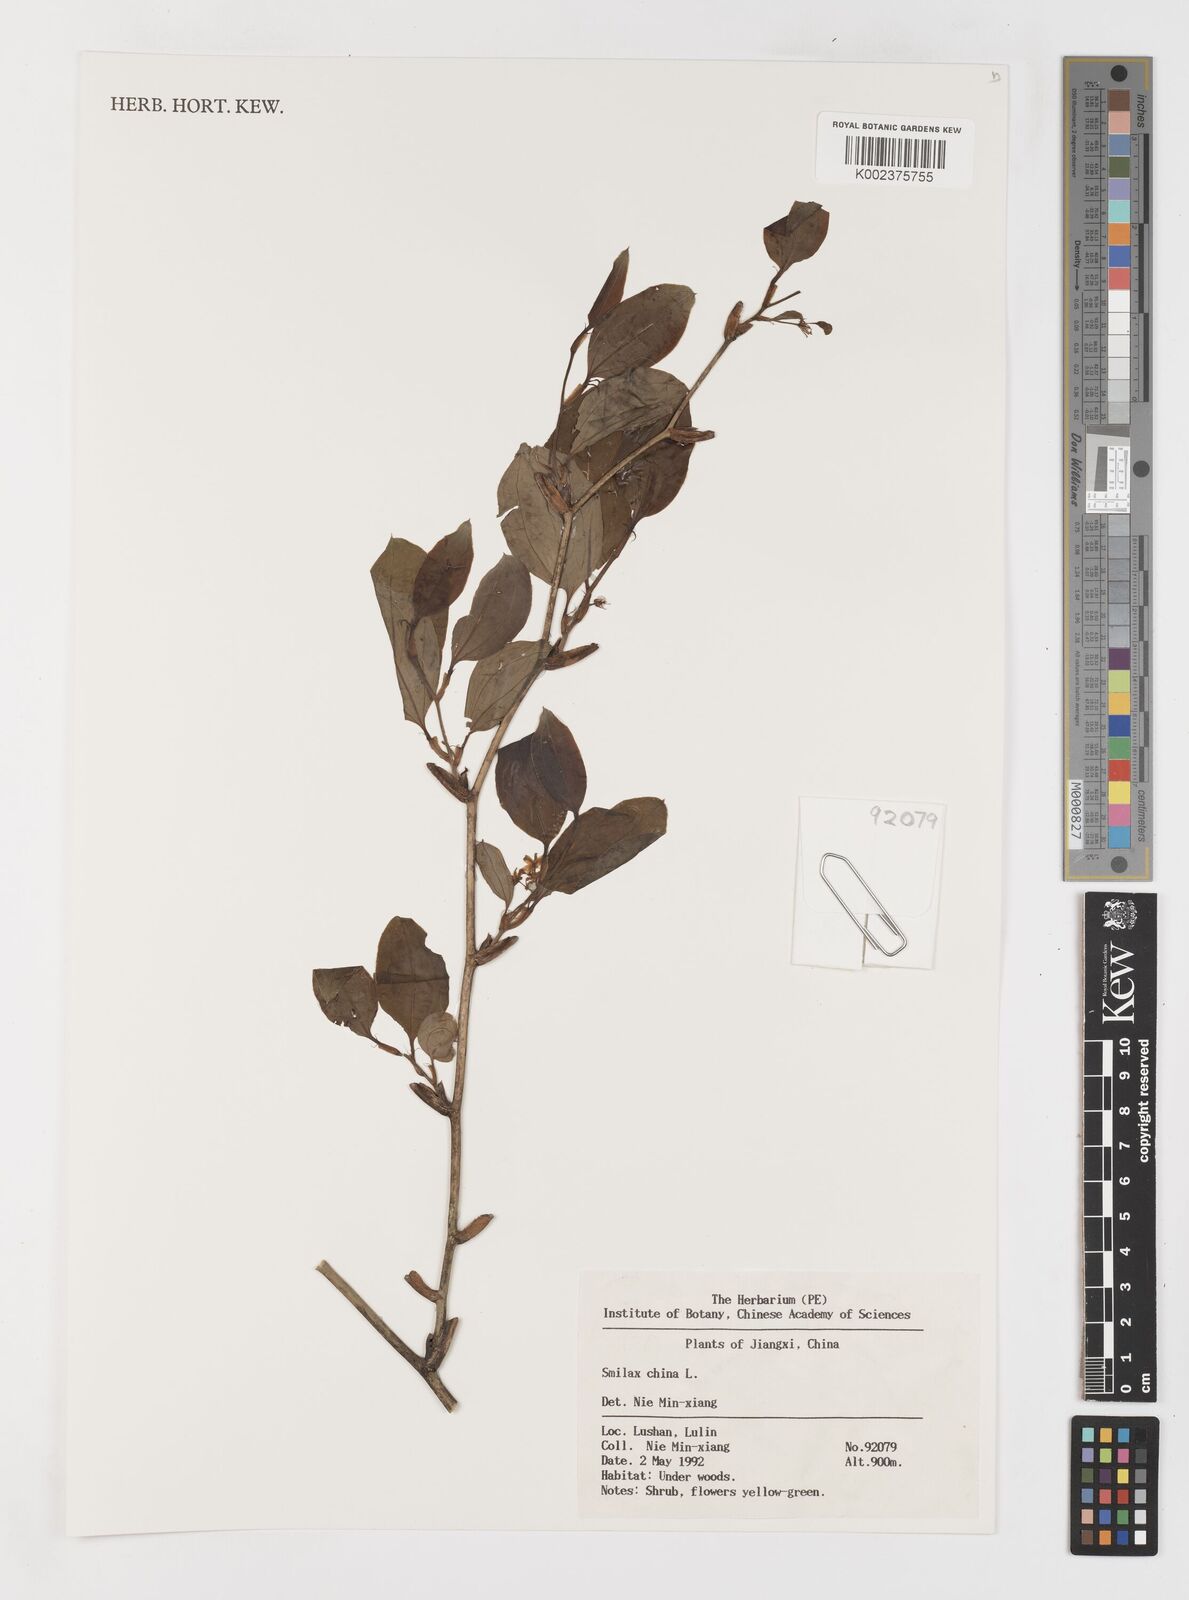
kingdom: Plantae
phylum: Tracheophyta
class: Liliopsida
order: Liliales
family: Smilacaceae
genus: Smilax
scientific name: Smilax china
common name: Chinaroot
